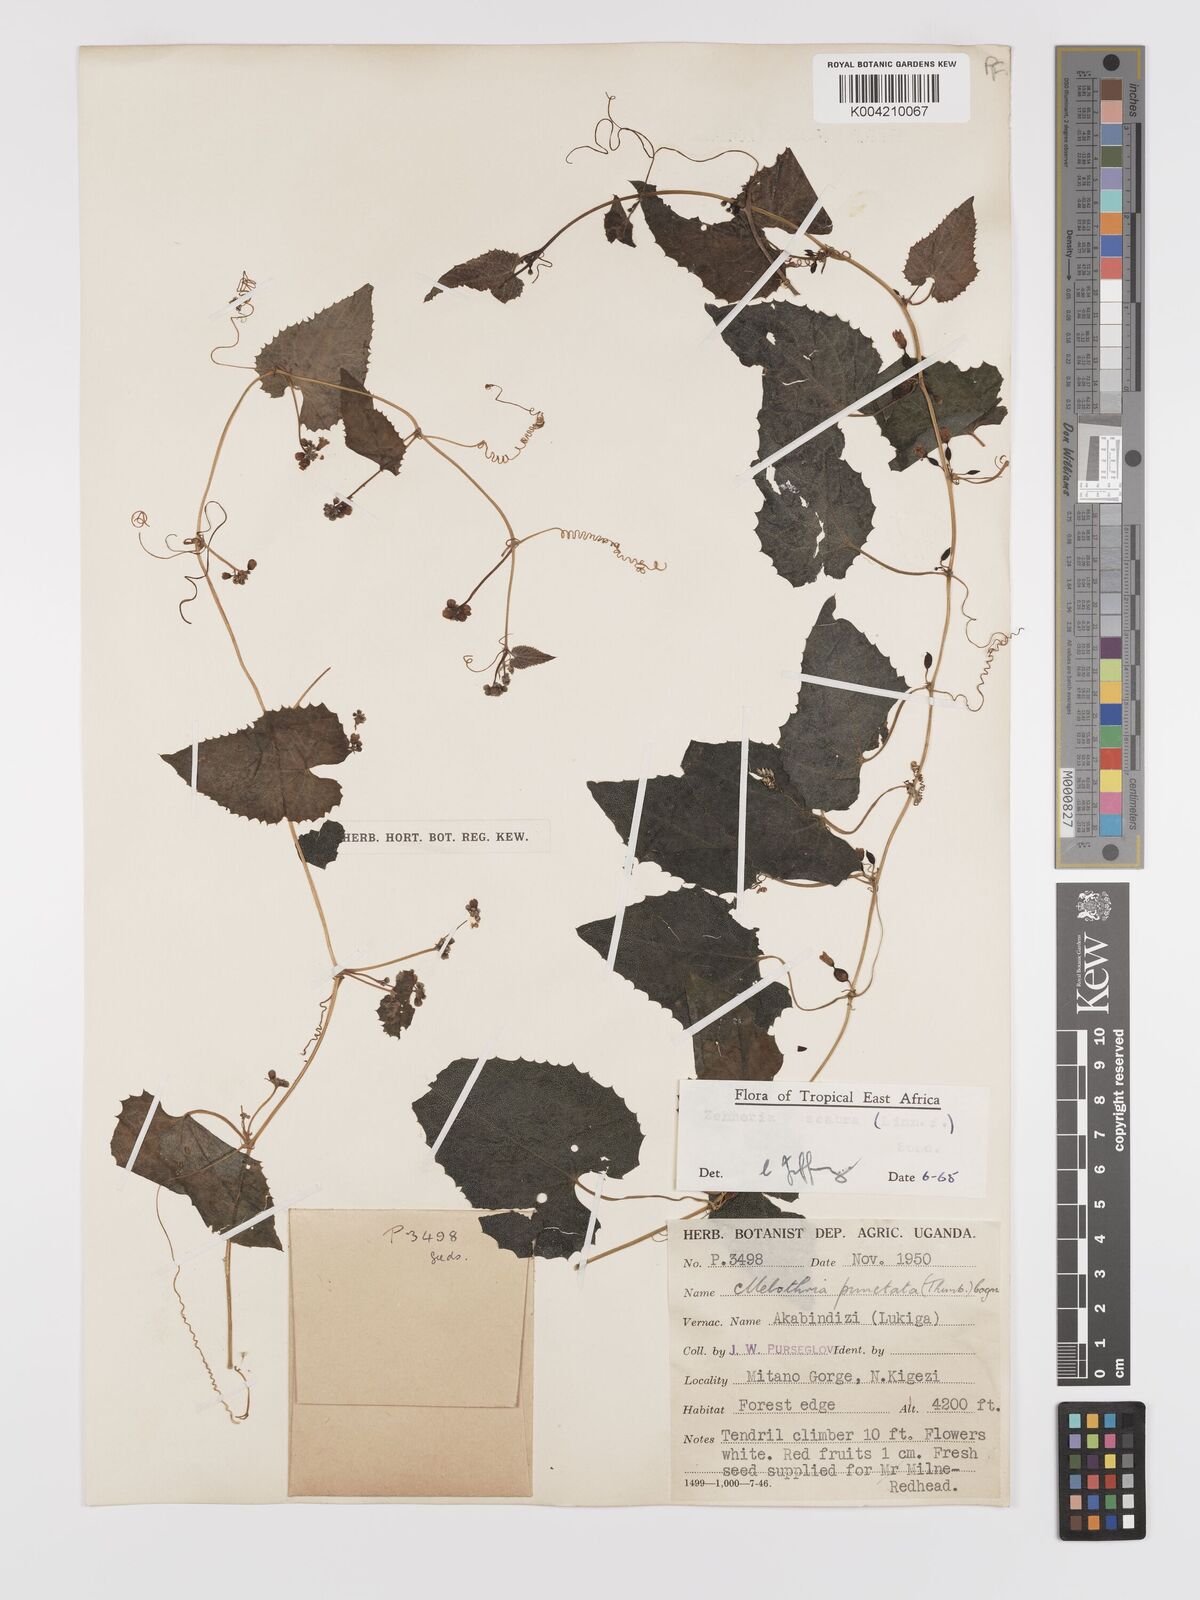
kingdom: Plantae
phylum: Tracheophyta
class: Magnoliopsida
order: Cucurbitales
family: Cucurbitaceae
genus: Zehneria
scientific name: Zehneria scabra
